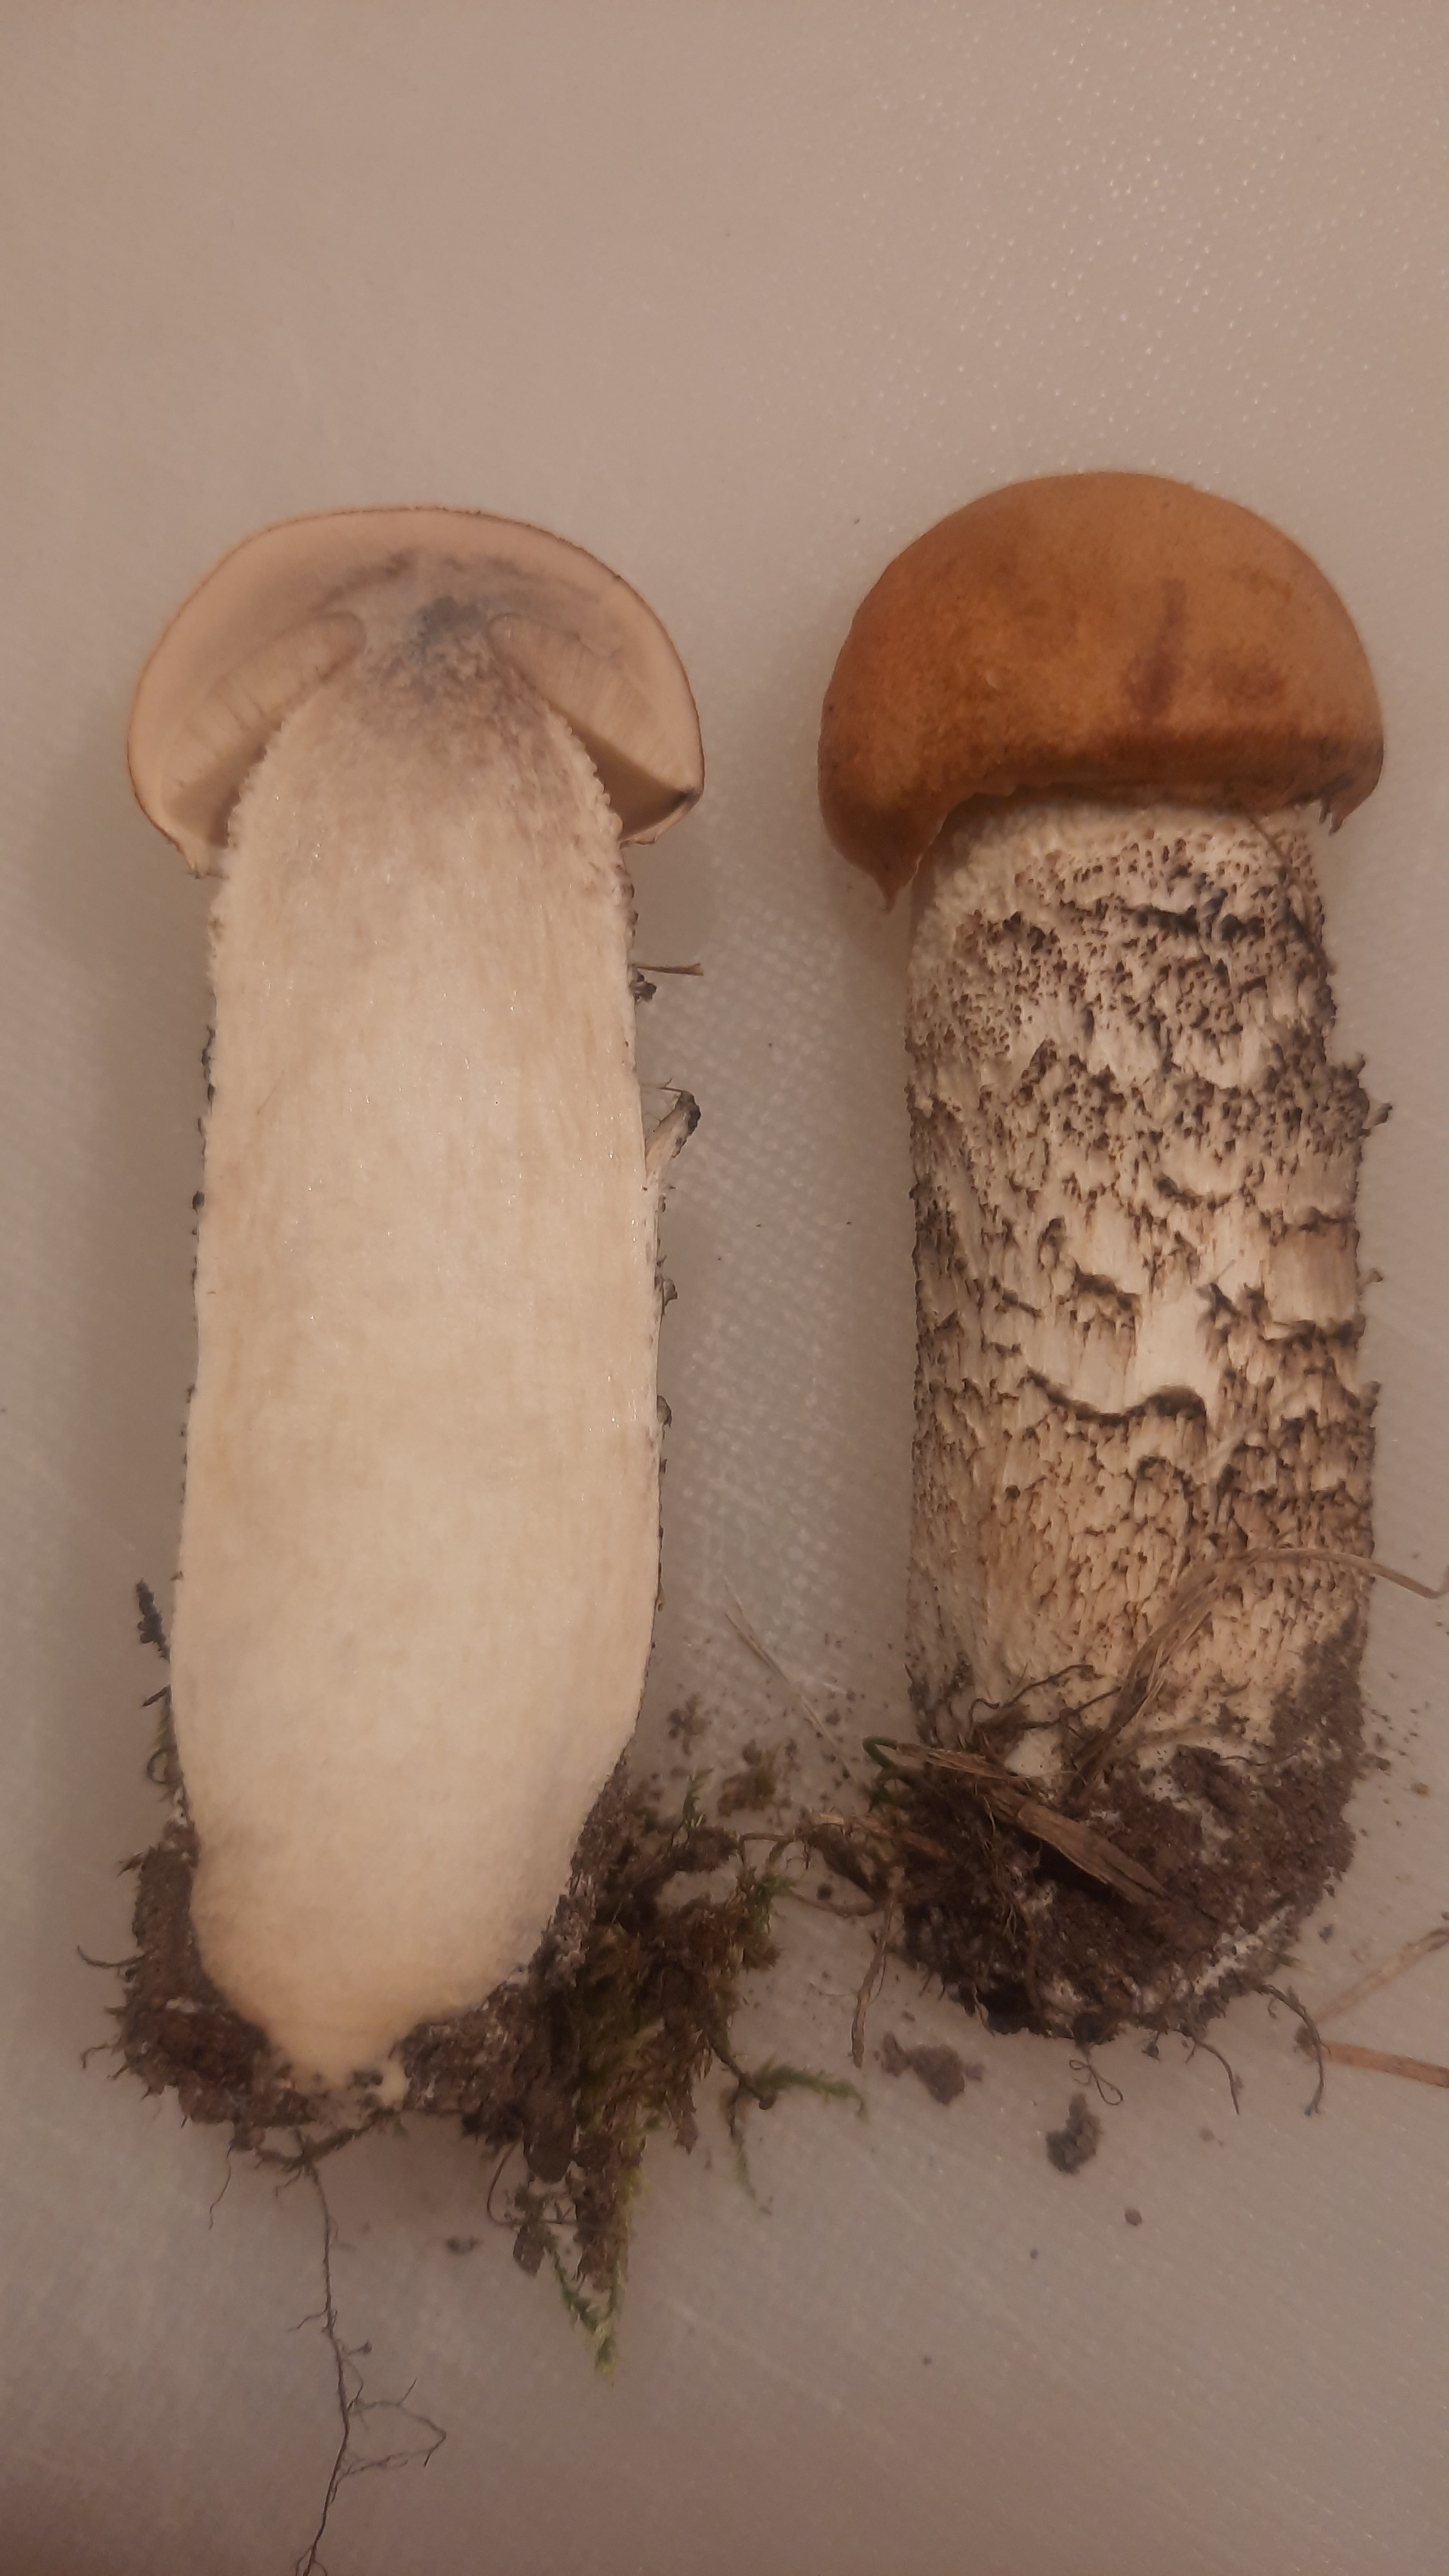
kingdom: Fungi
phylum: Basidiomycota
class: Agaricomycetes
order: Boletales
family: Boletaceae
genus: Leccinum
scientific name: Leccinum
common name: skælrørhat
